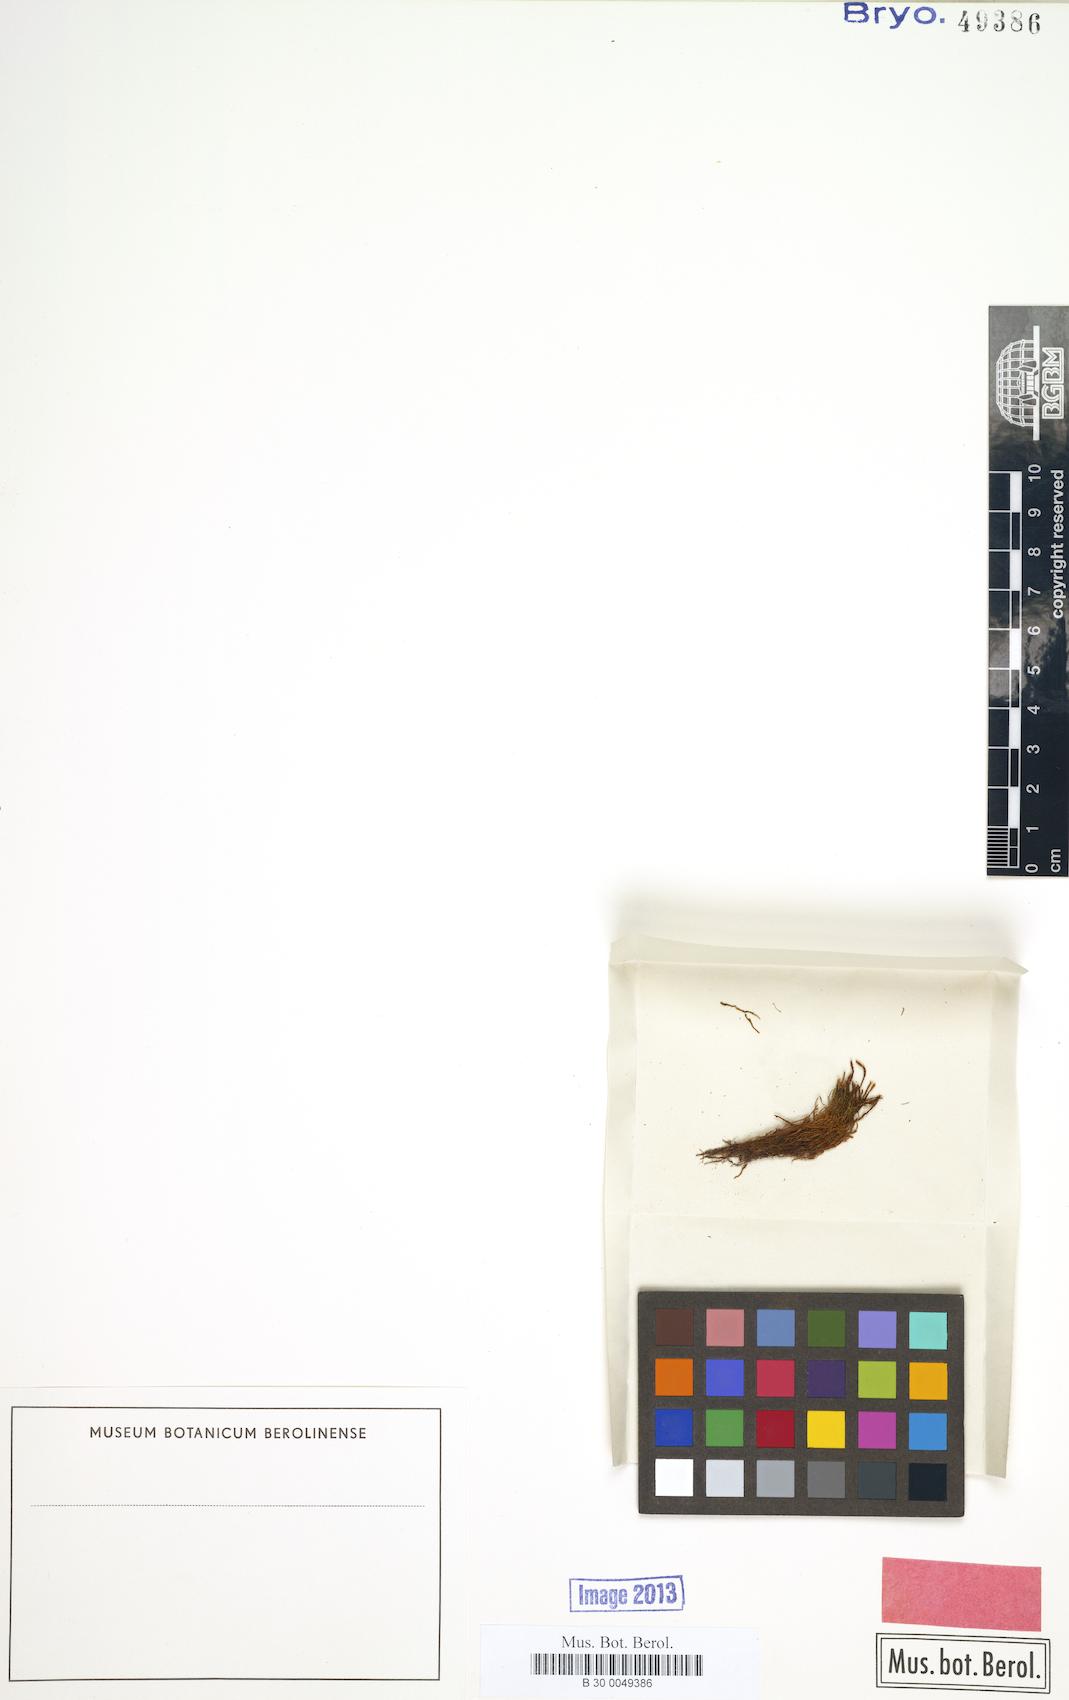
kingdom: Plantae
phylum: Bryophyta
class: Bryopsida
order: Pottiales
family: Pottiaceae
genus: Tortula
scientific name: Tortula vahliana
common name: Chalk screw-moss
